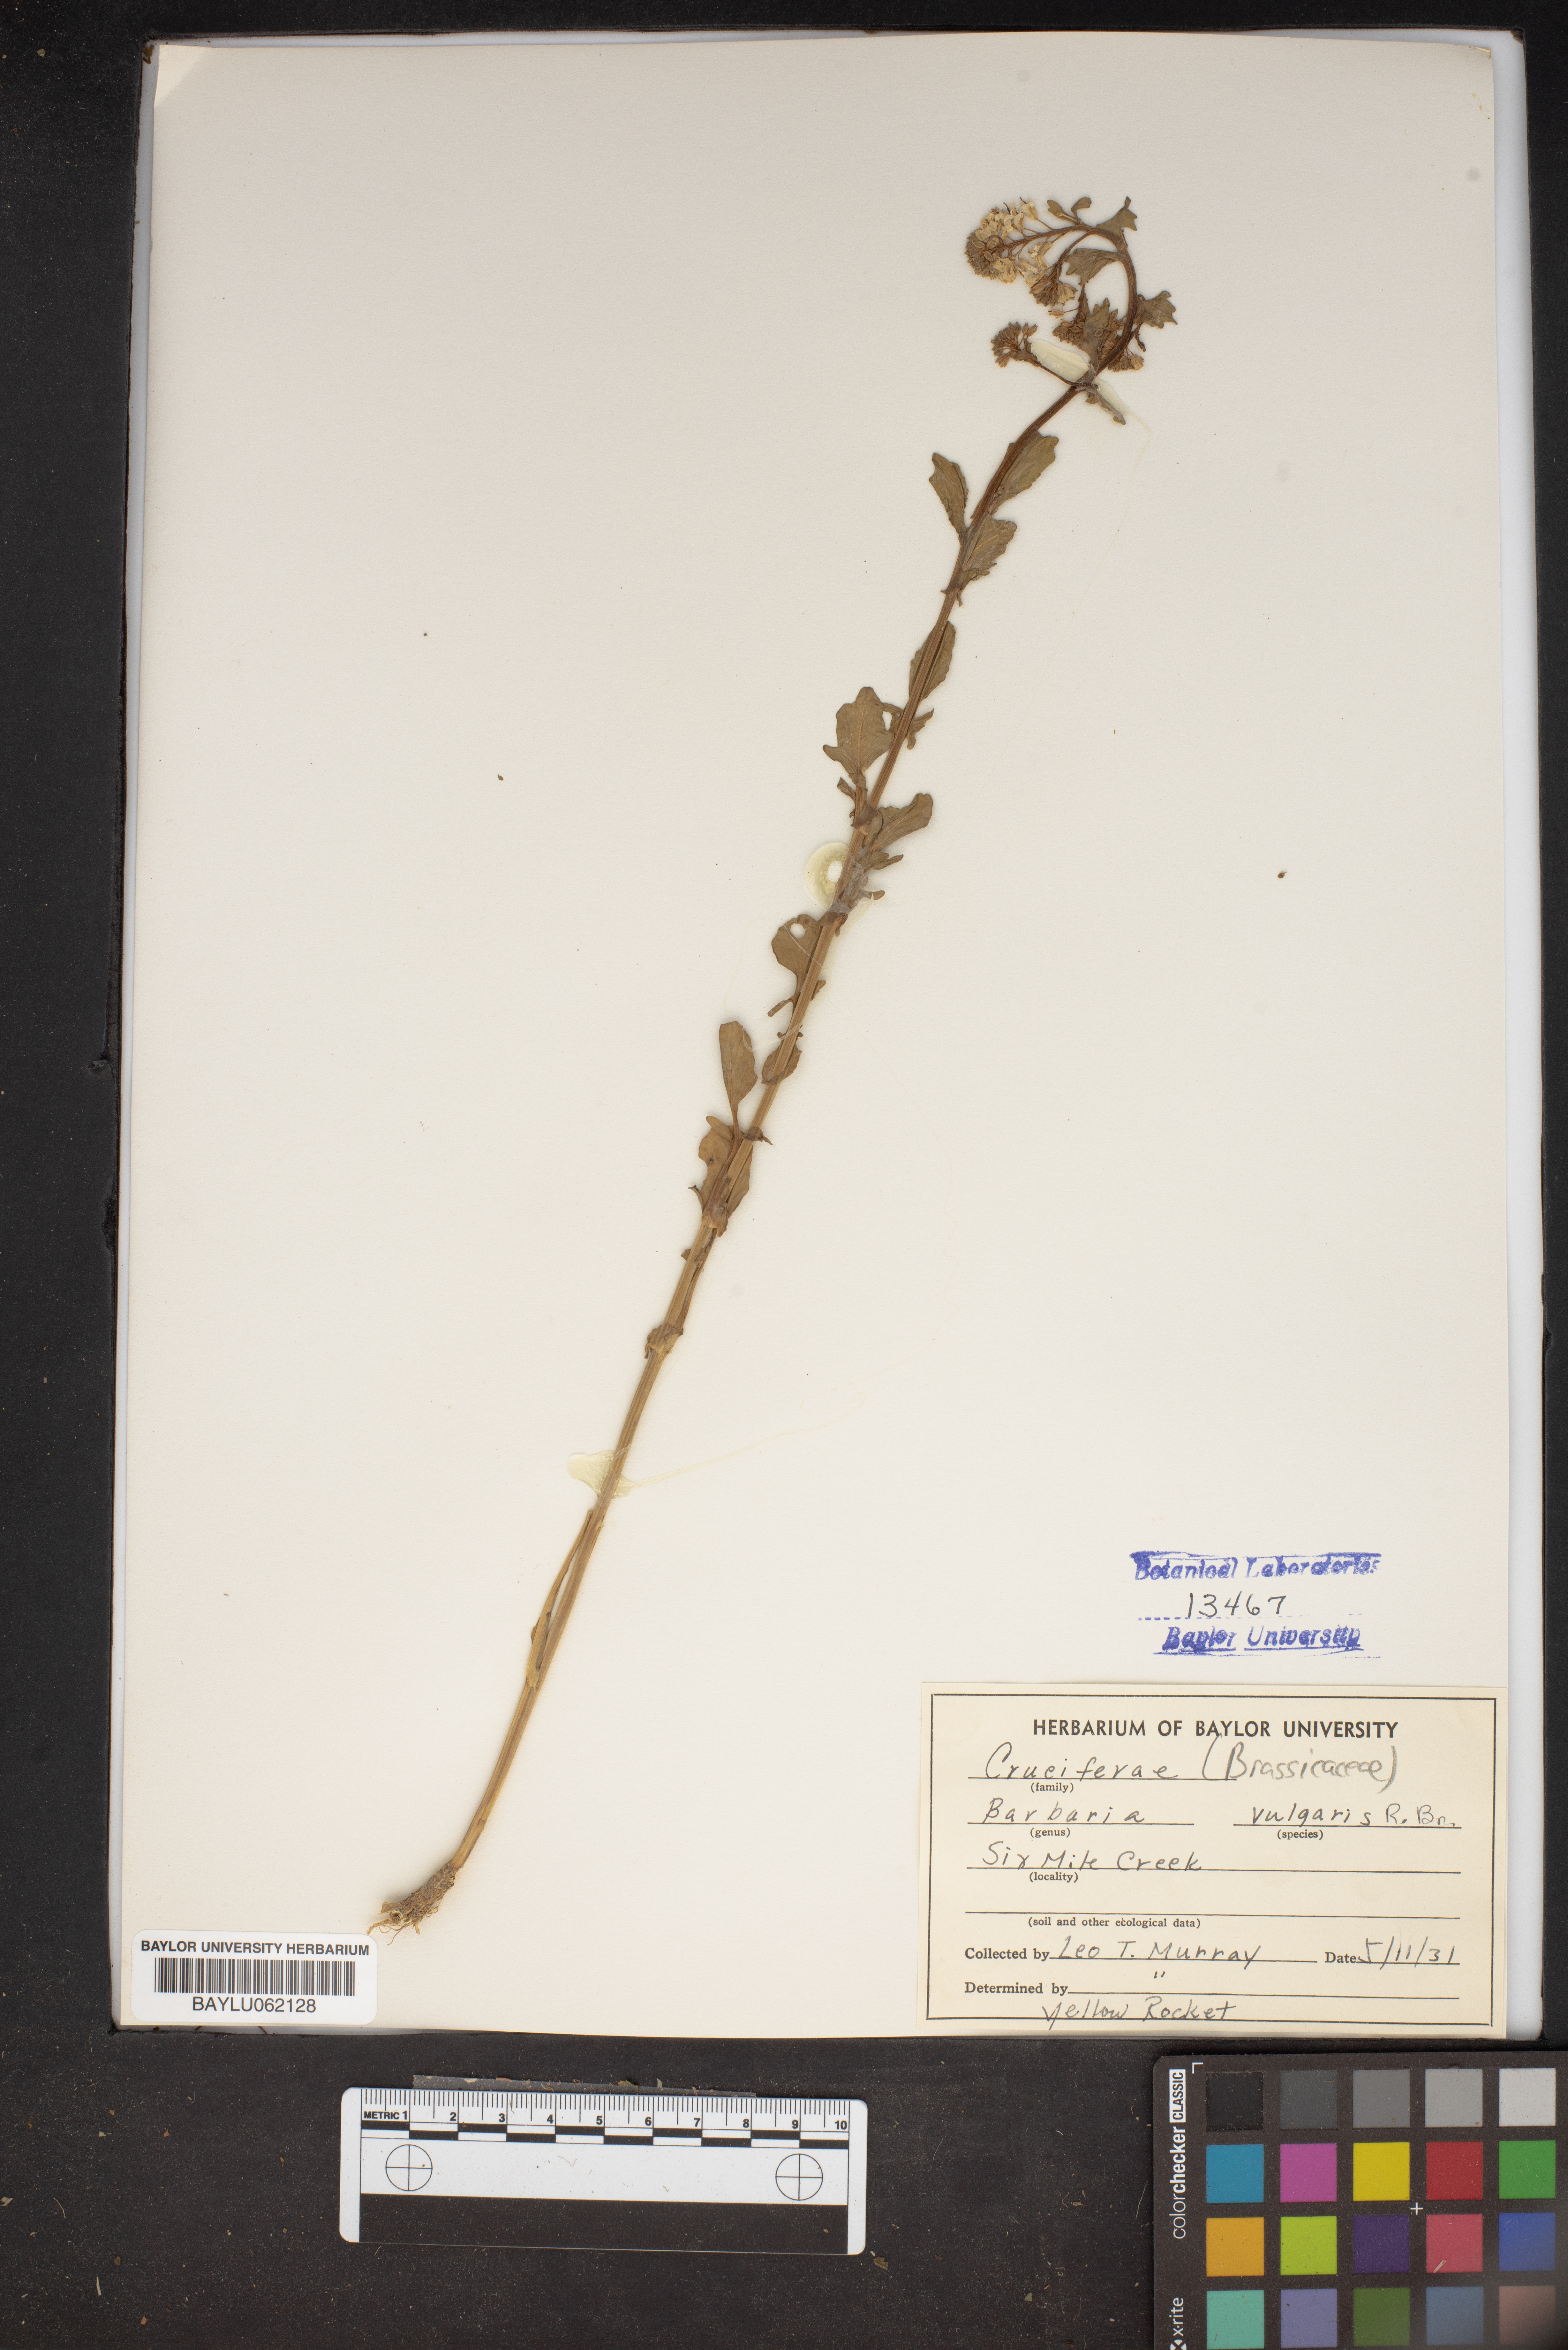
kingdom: Plantae
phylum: Tracheophyta
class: Magnoliopsida
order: Brassicales
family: Brassicaceae
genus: Barbarea
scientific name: Barbarea vulgaris
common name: Cressy-greens
